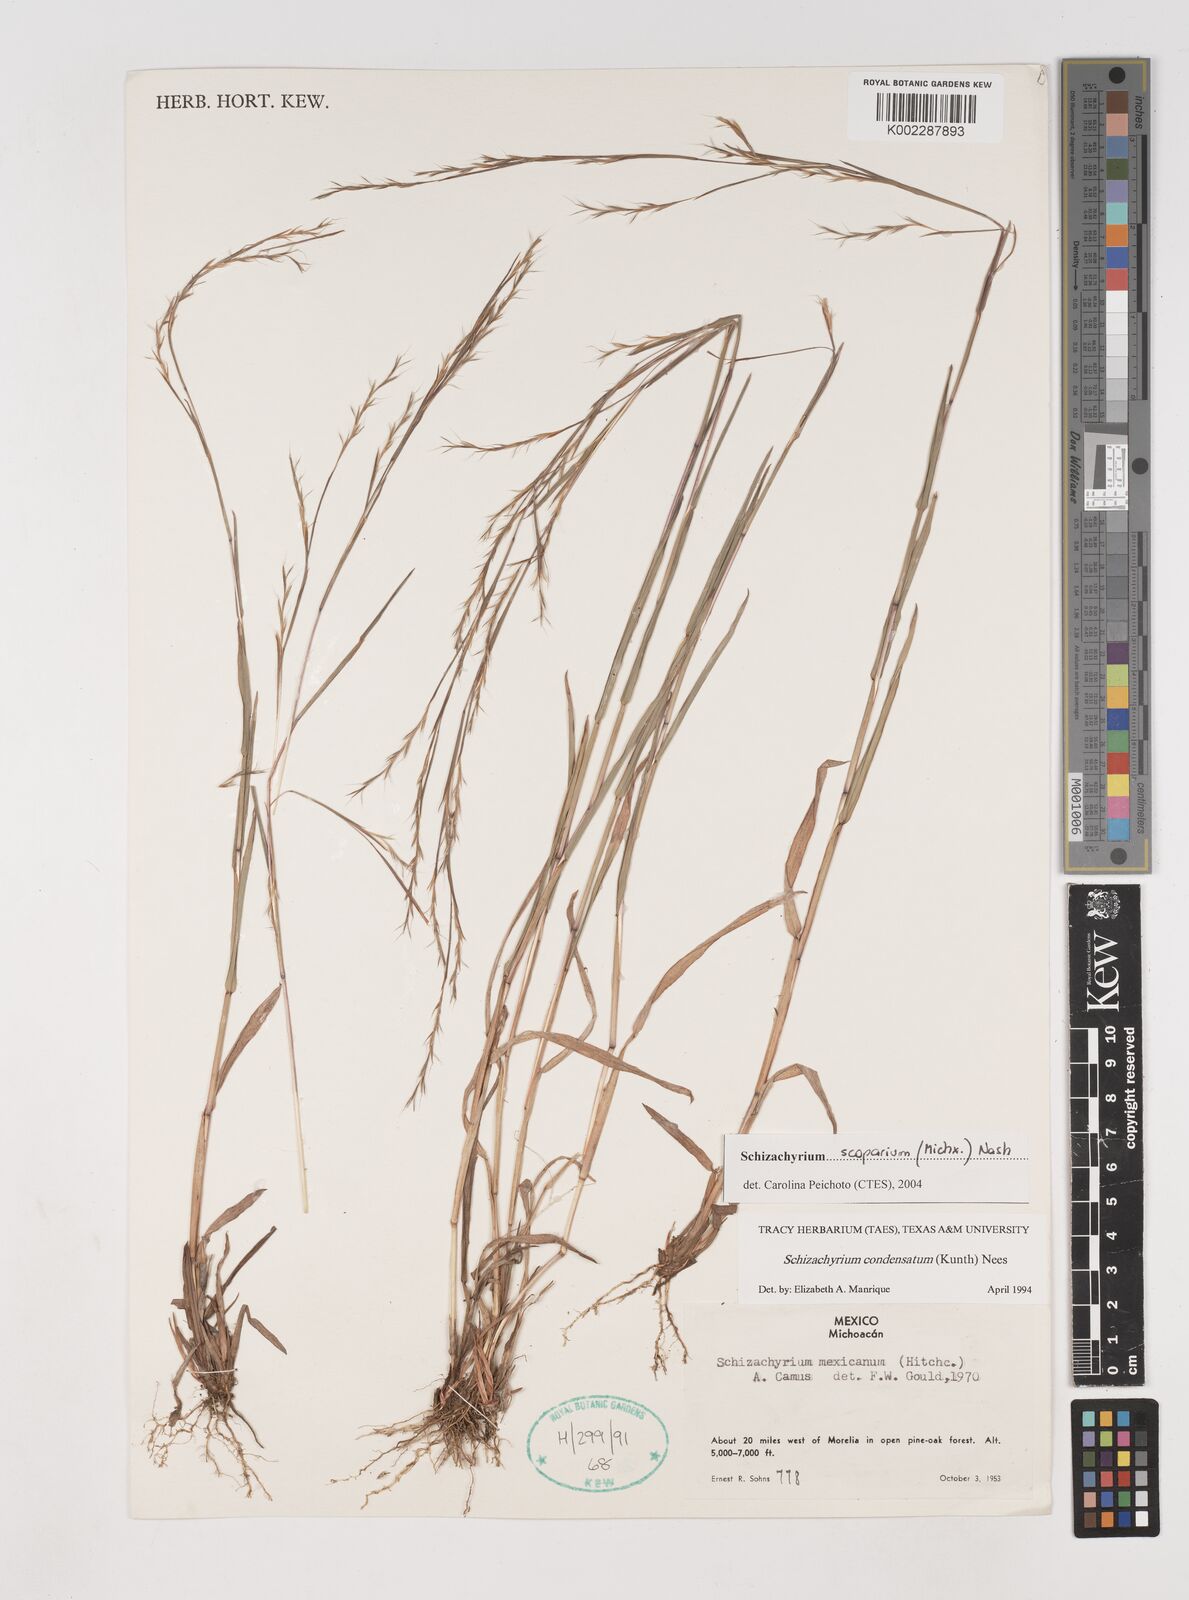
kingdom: Plantae
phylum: Tracheophyta
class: Liliopsida
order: Poales
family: Poaceae
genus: Schizachyrium
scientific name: Schizachyrium scoparium
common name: Little bluestem
